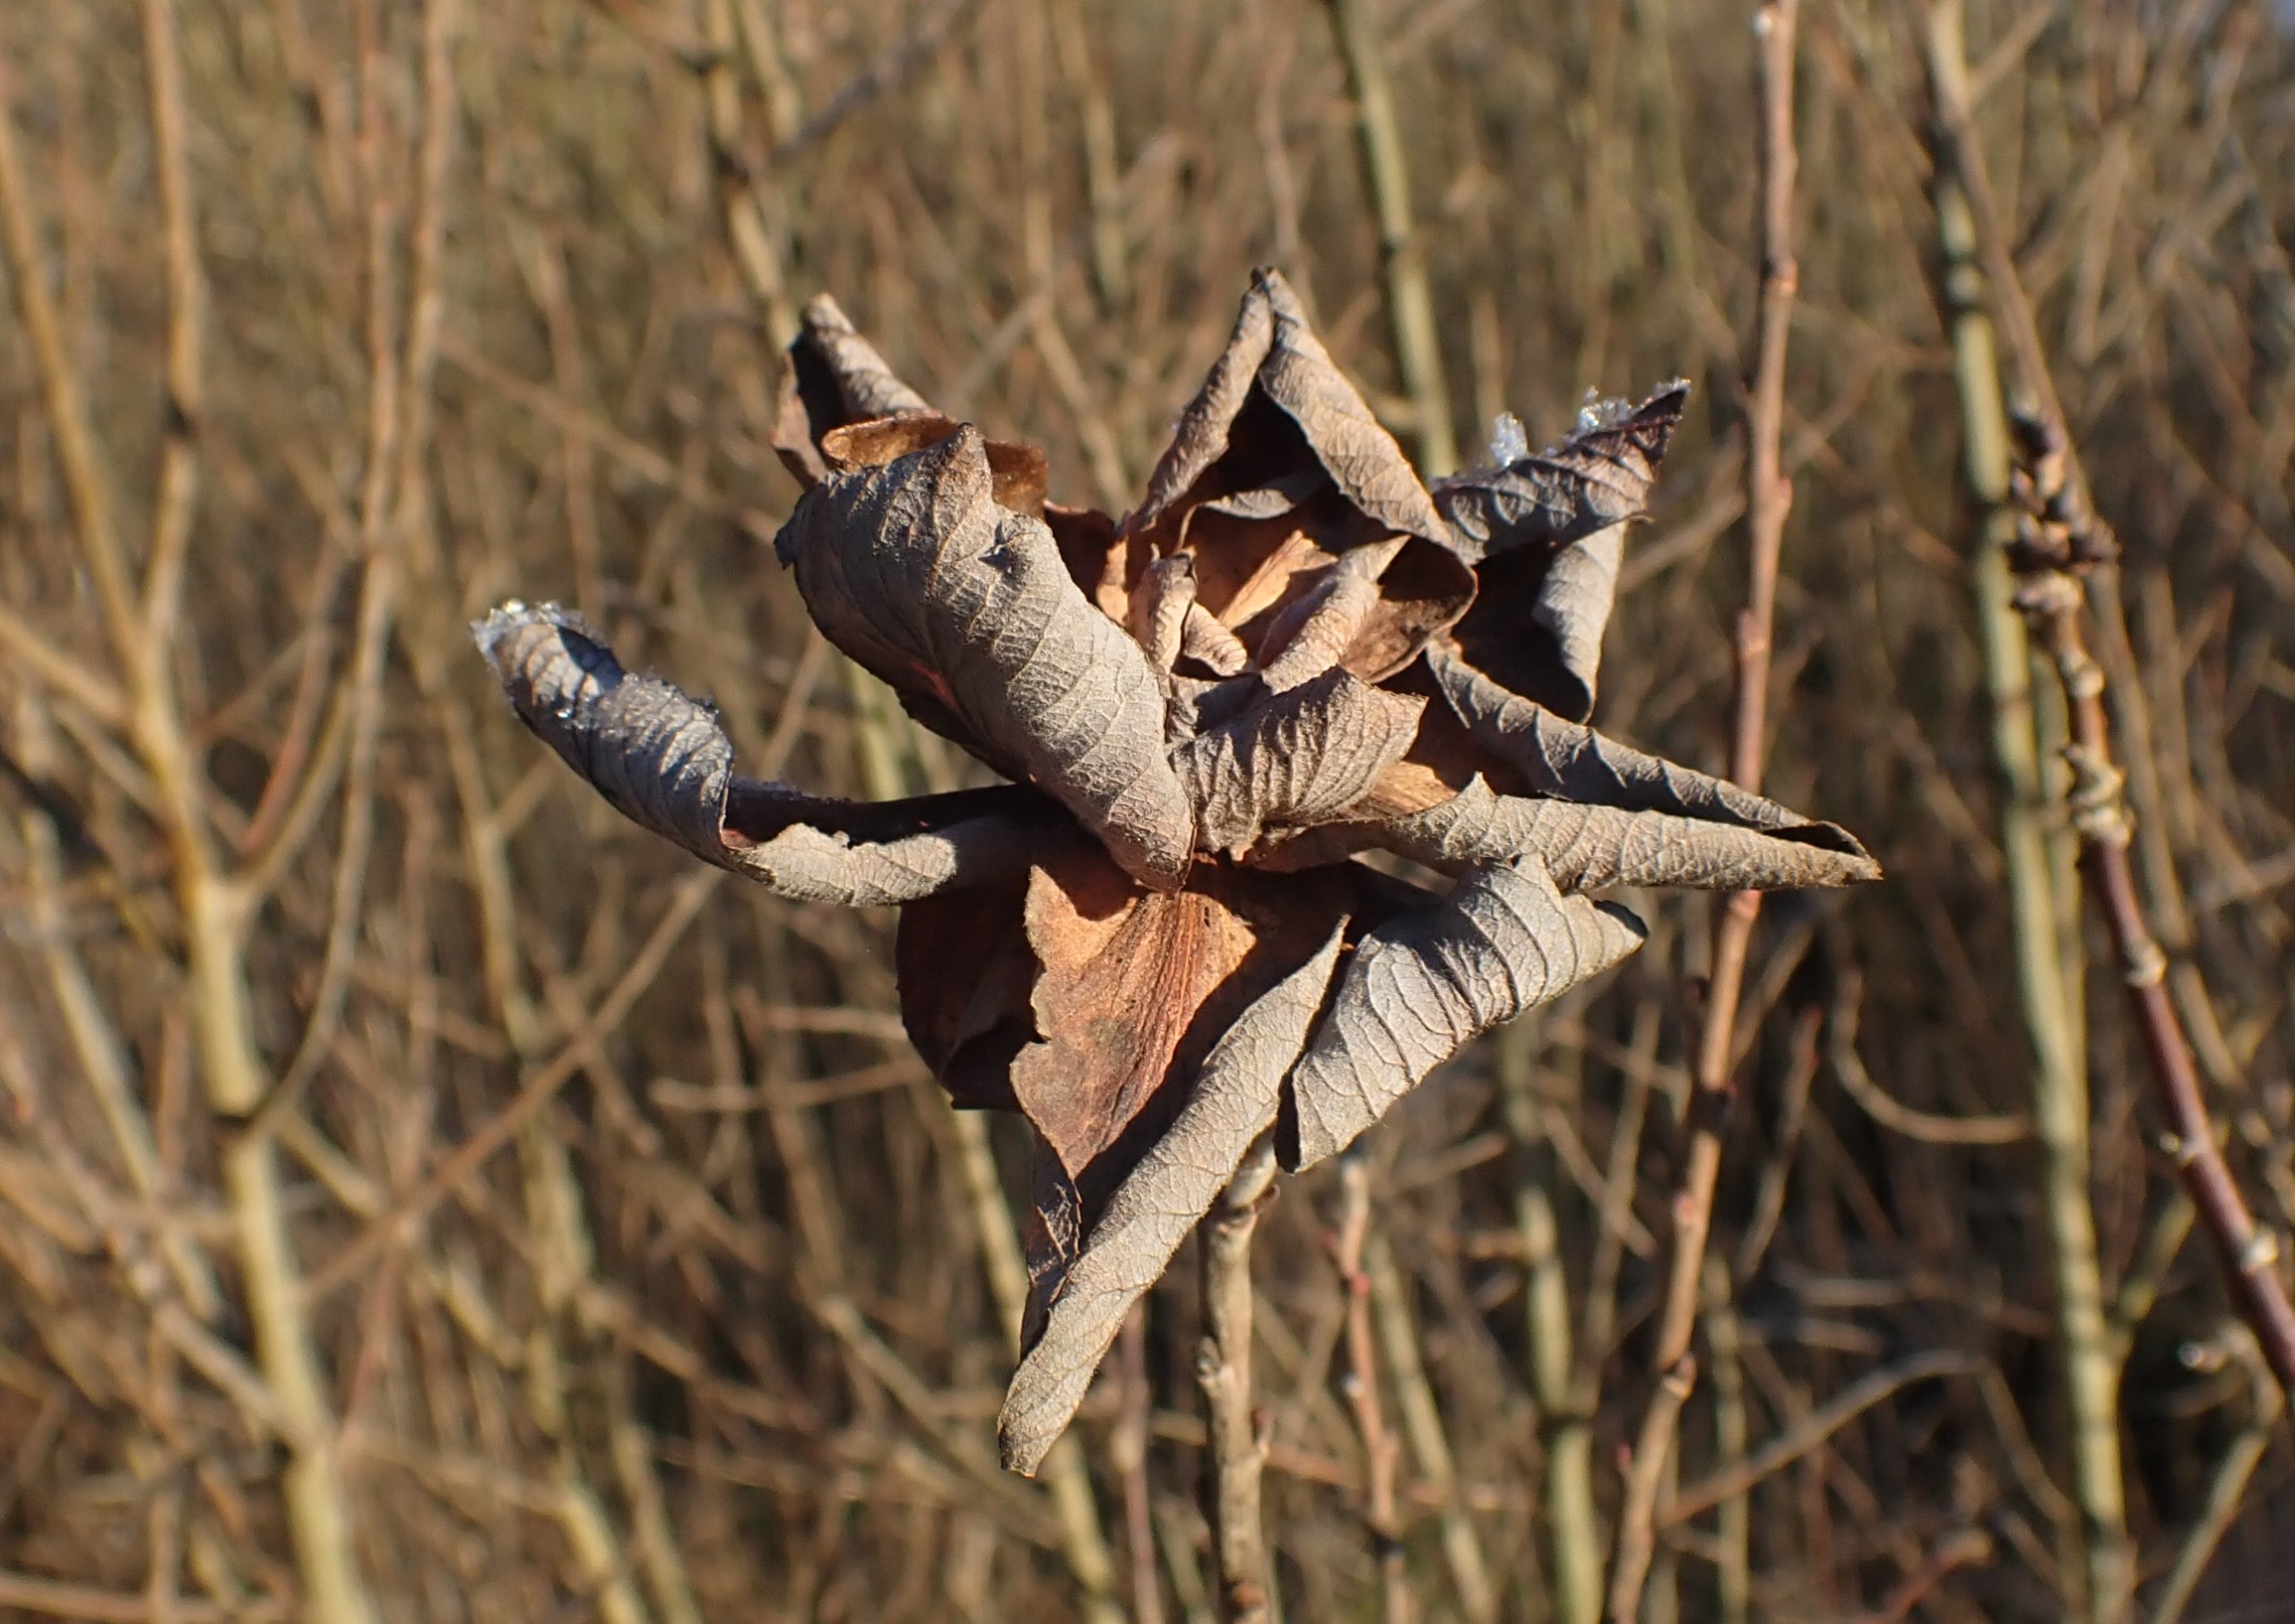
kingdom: Animalia
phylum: Arthropoda
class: Insecta
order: Diptera
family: Cecidomyiidae
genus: Rabdophaga
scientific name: Rabdophaga rosaria
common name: Pilerosetgalmyg
